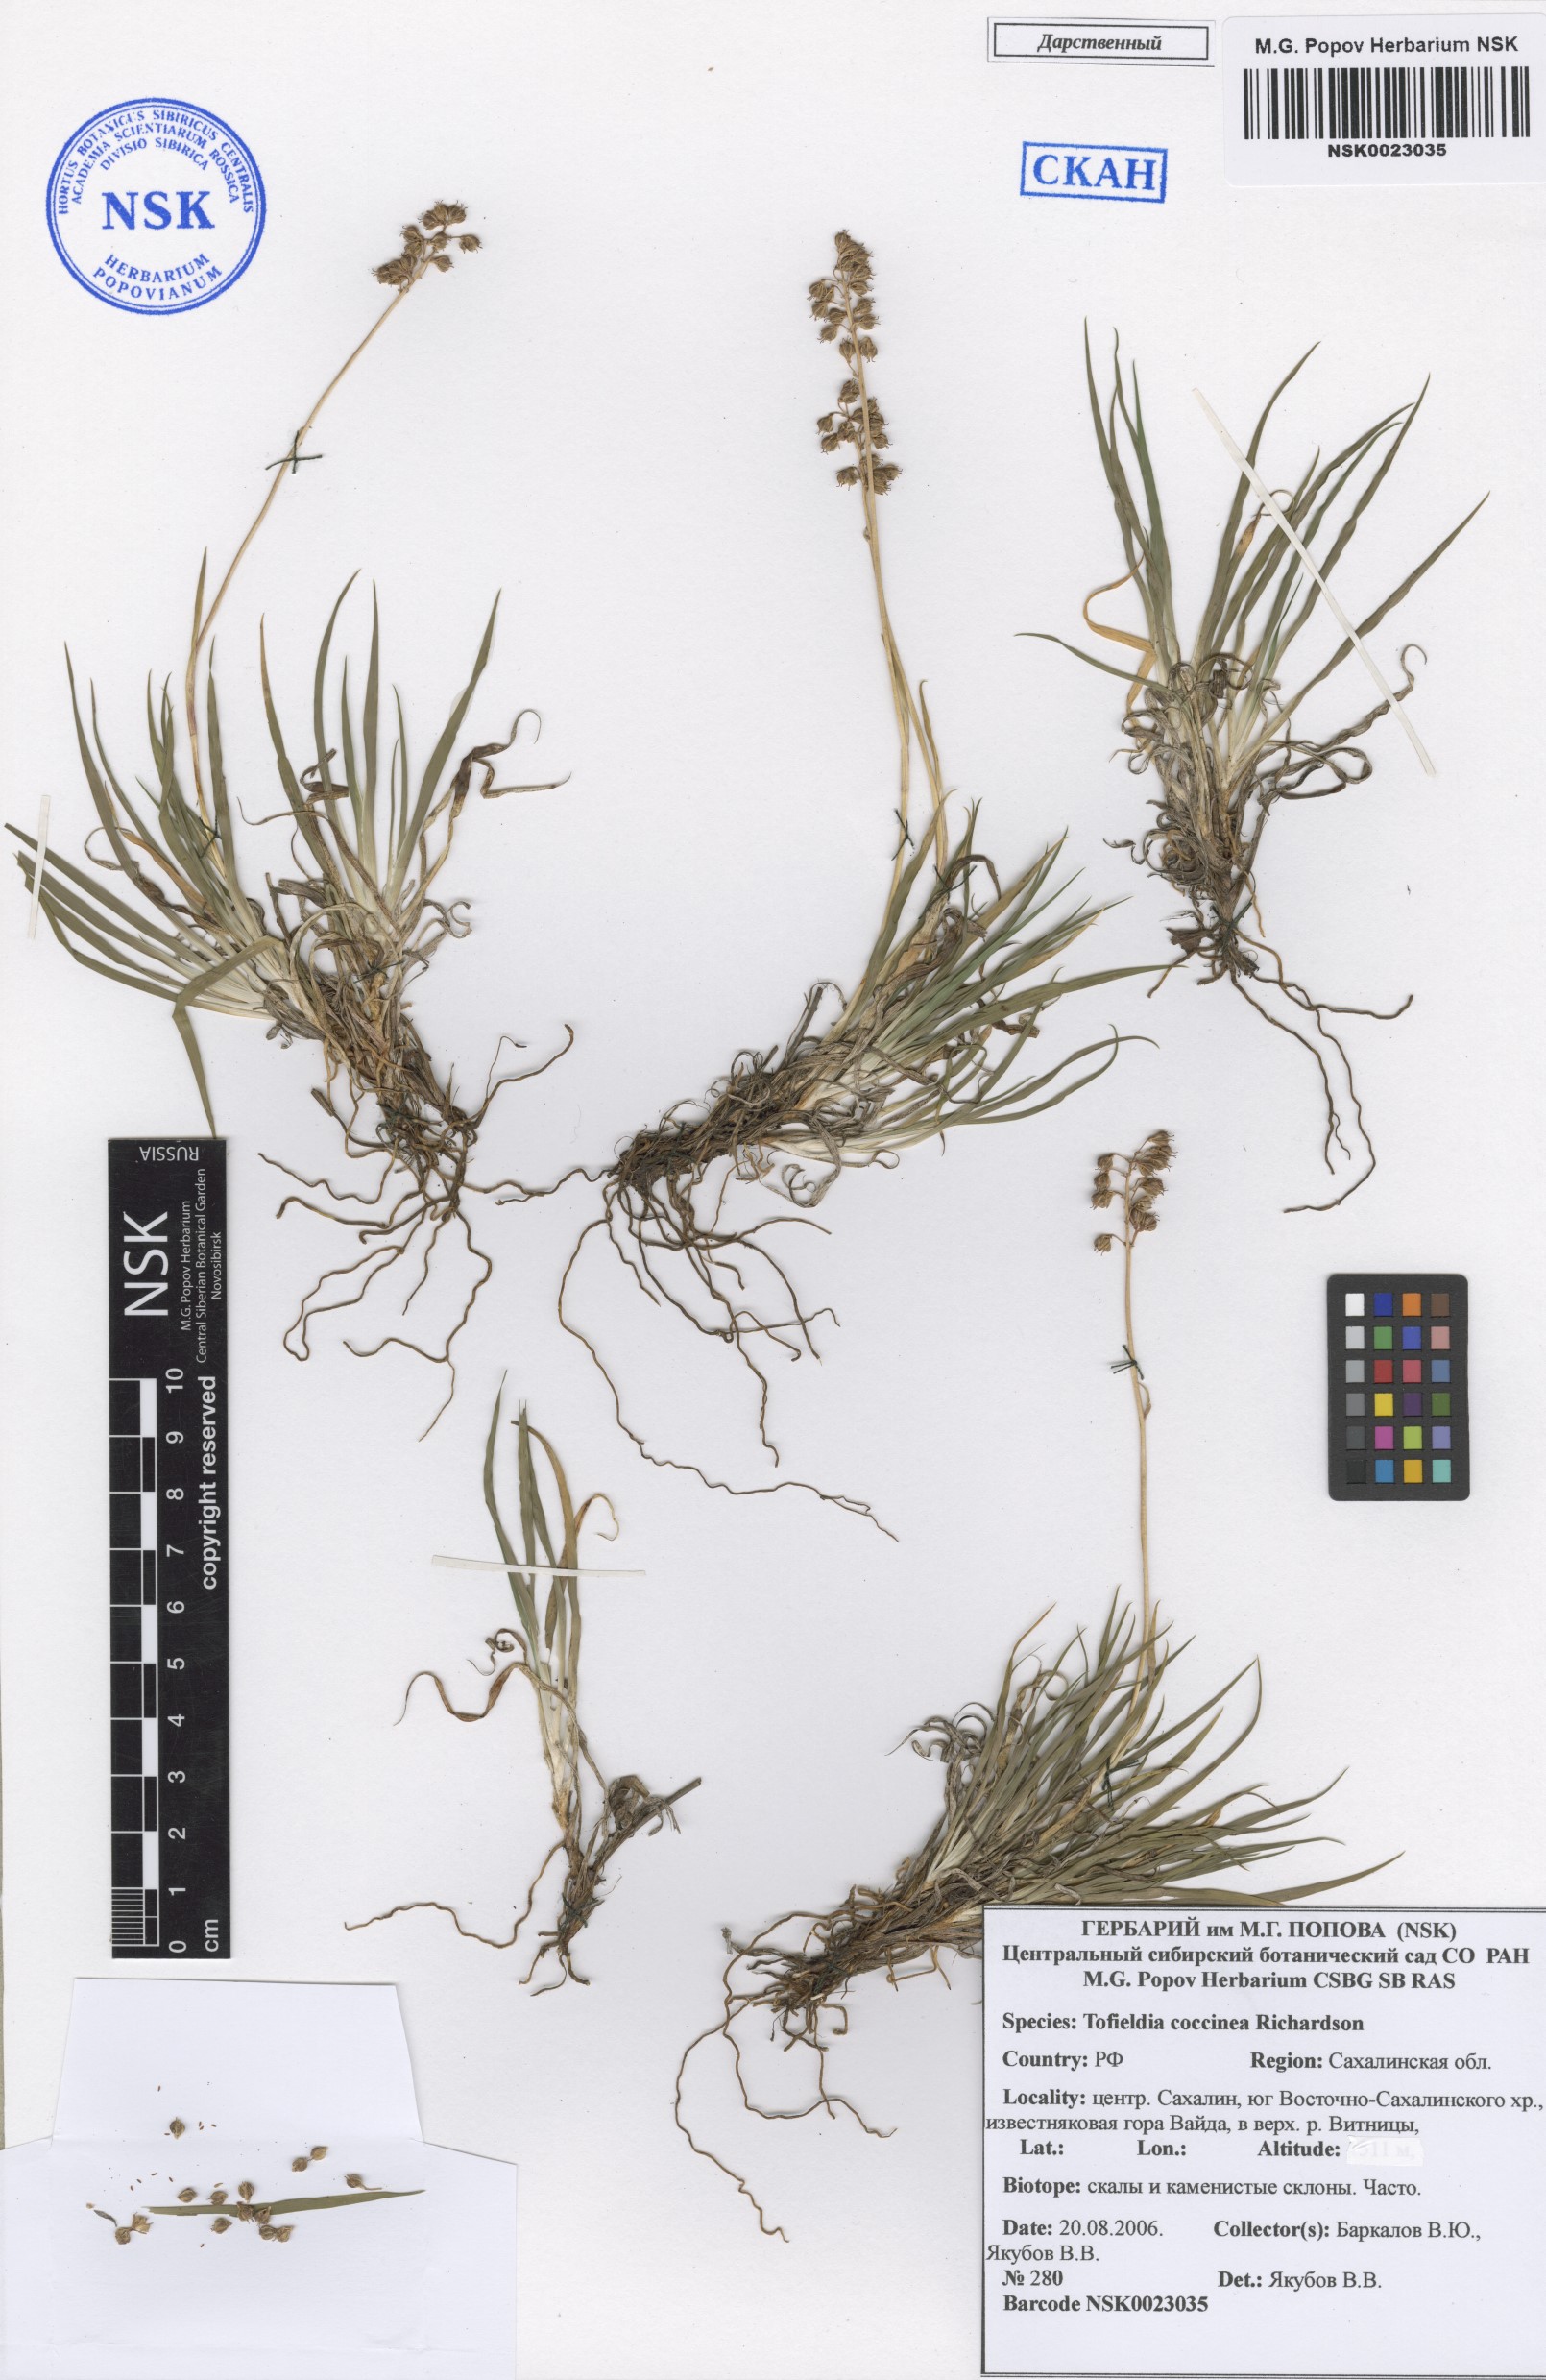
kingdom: Plantae
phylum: Tracheophyta
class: Liliopsida
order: Alismatales
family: Tofieldiaceae
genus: Tofieldia
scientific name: Tofieldia coccinea
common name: Northern false asphodel
